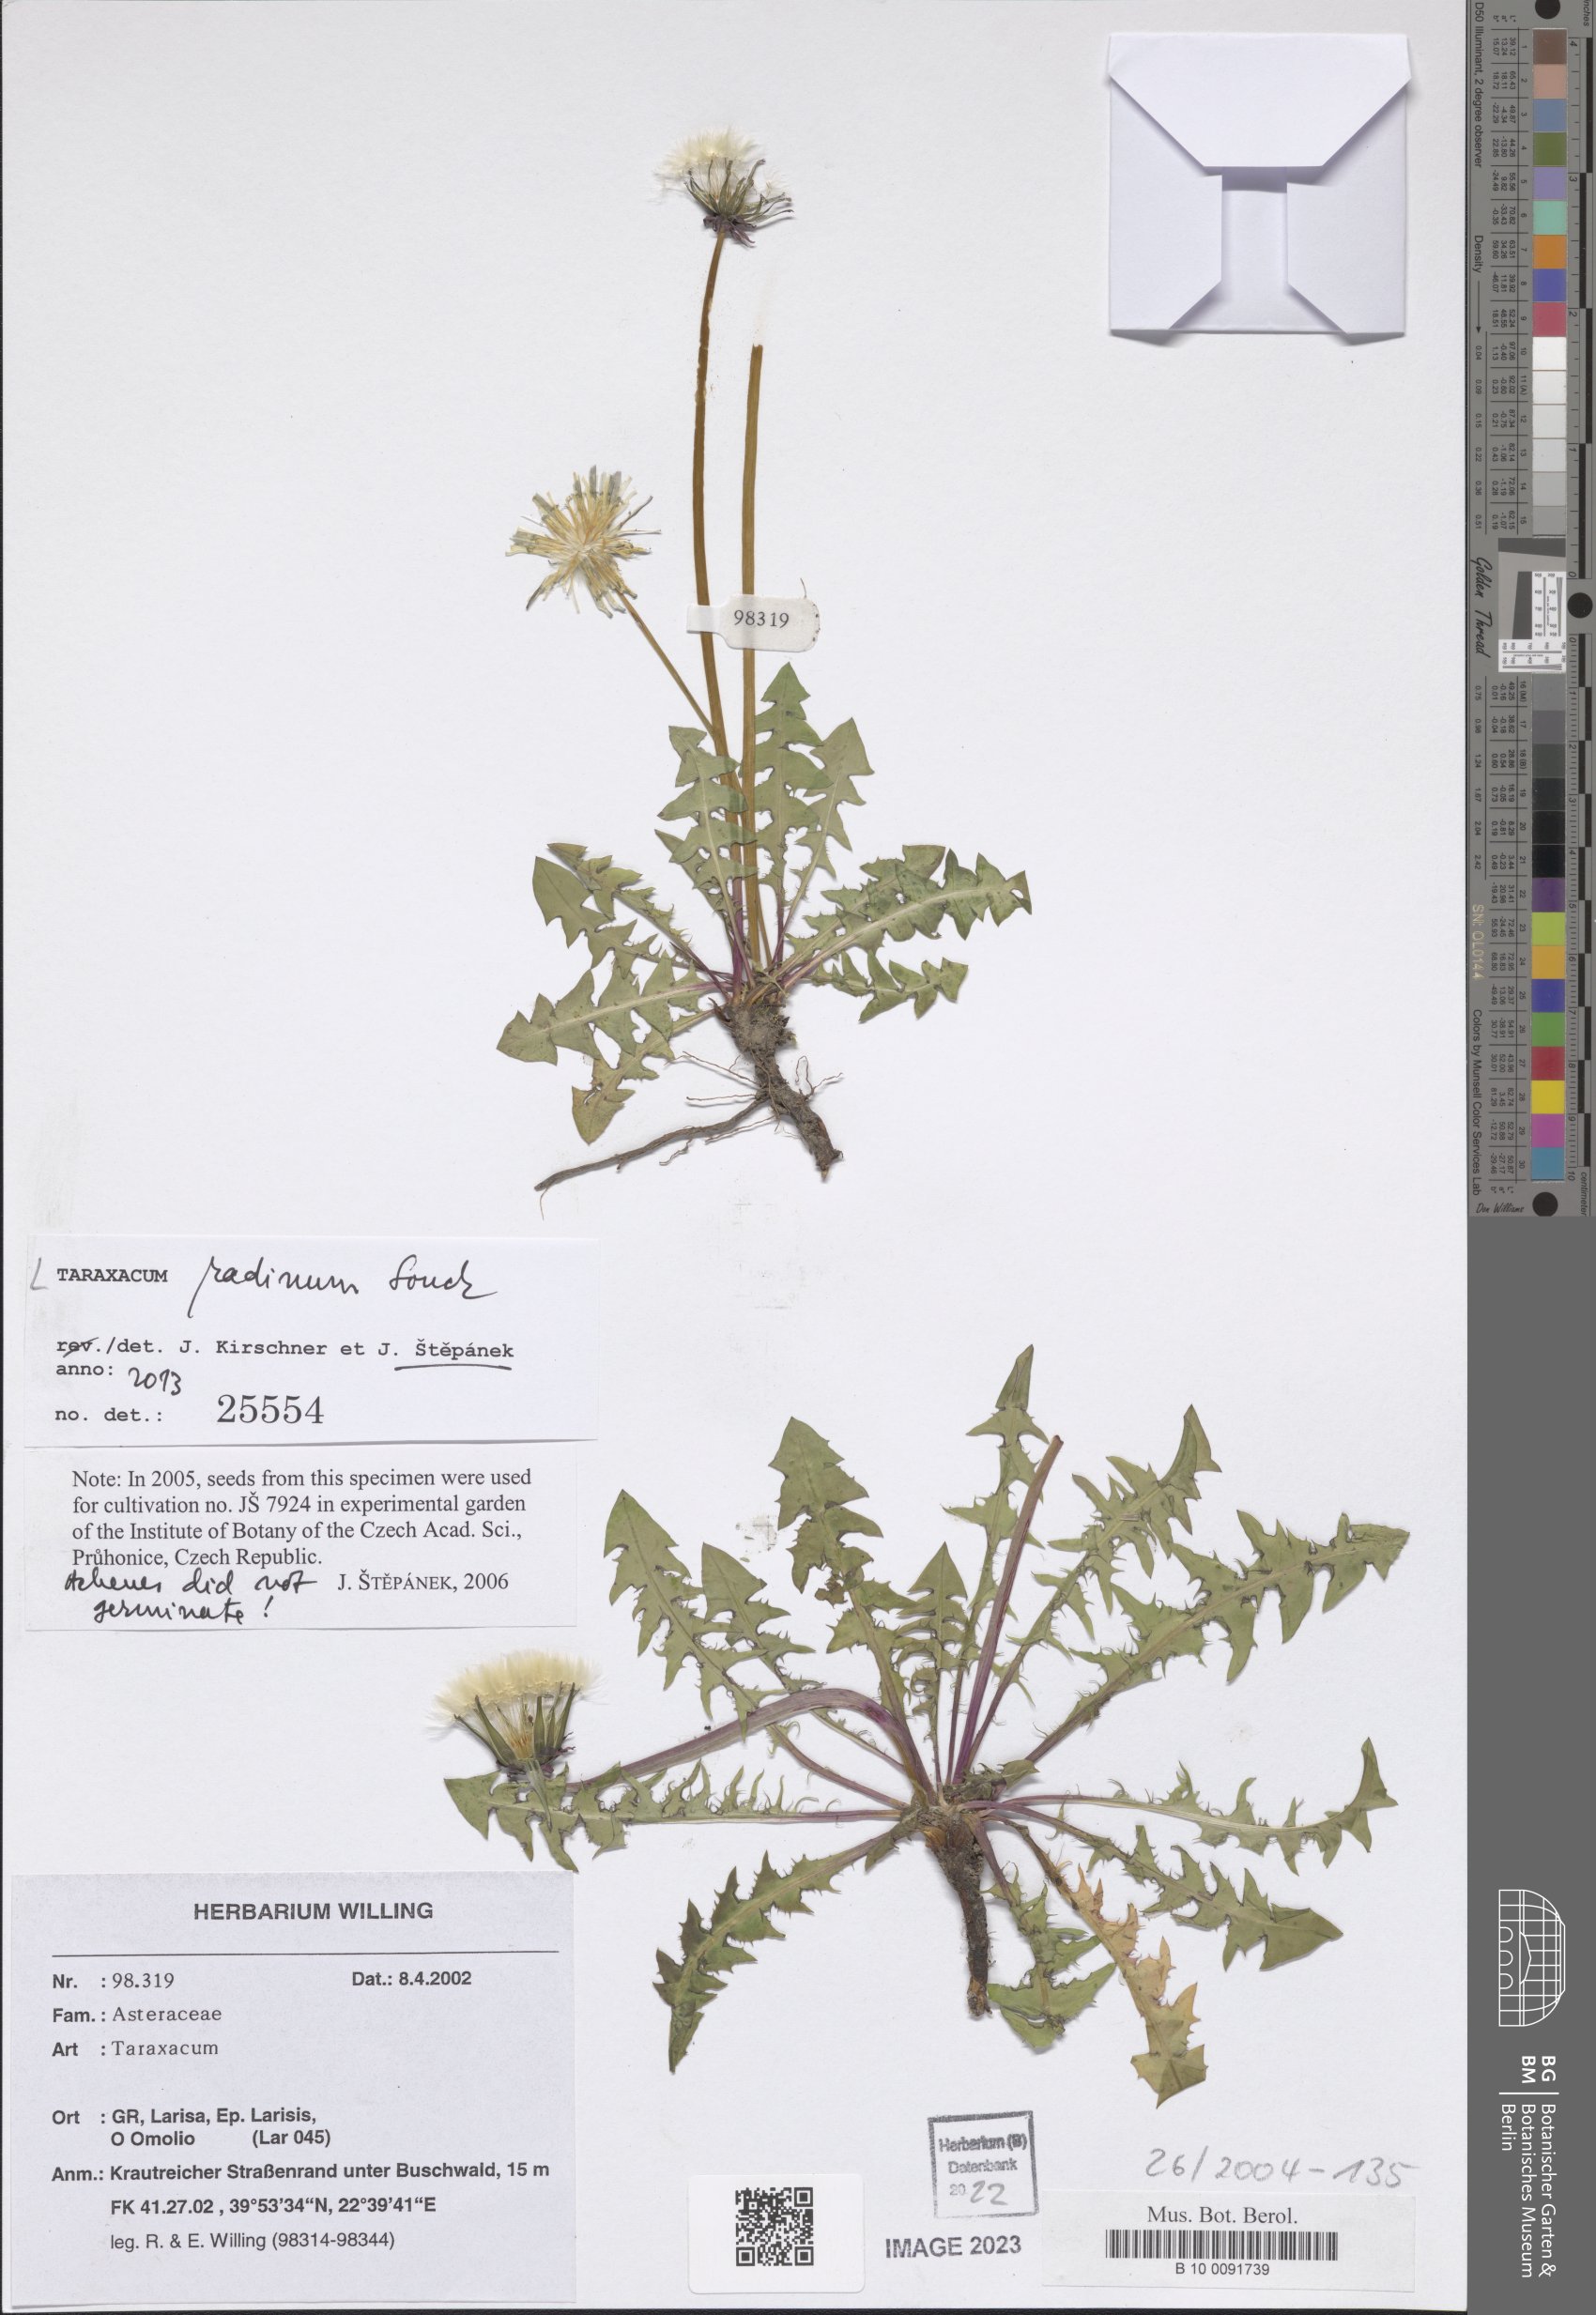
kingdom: Plantae
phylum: Tracheophyta
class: Magnoliopsida
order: Asterales
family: Asteraceae
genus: Taraxacum
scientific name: Taraxacum radinum
